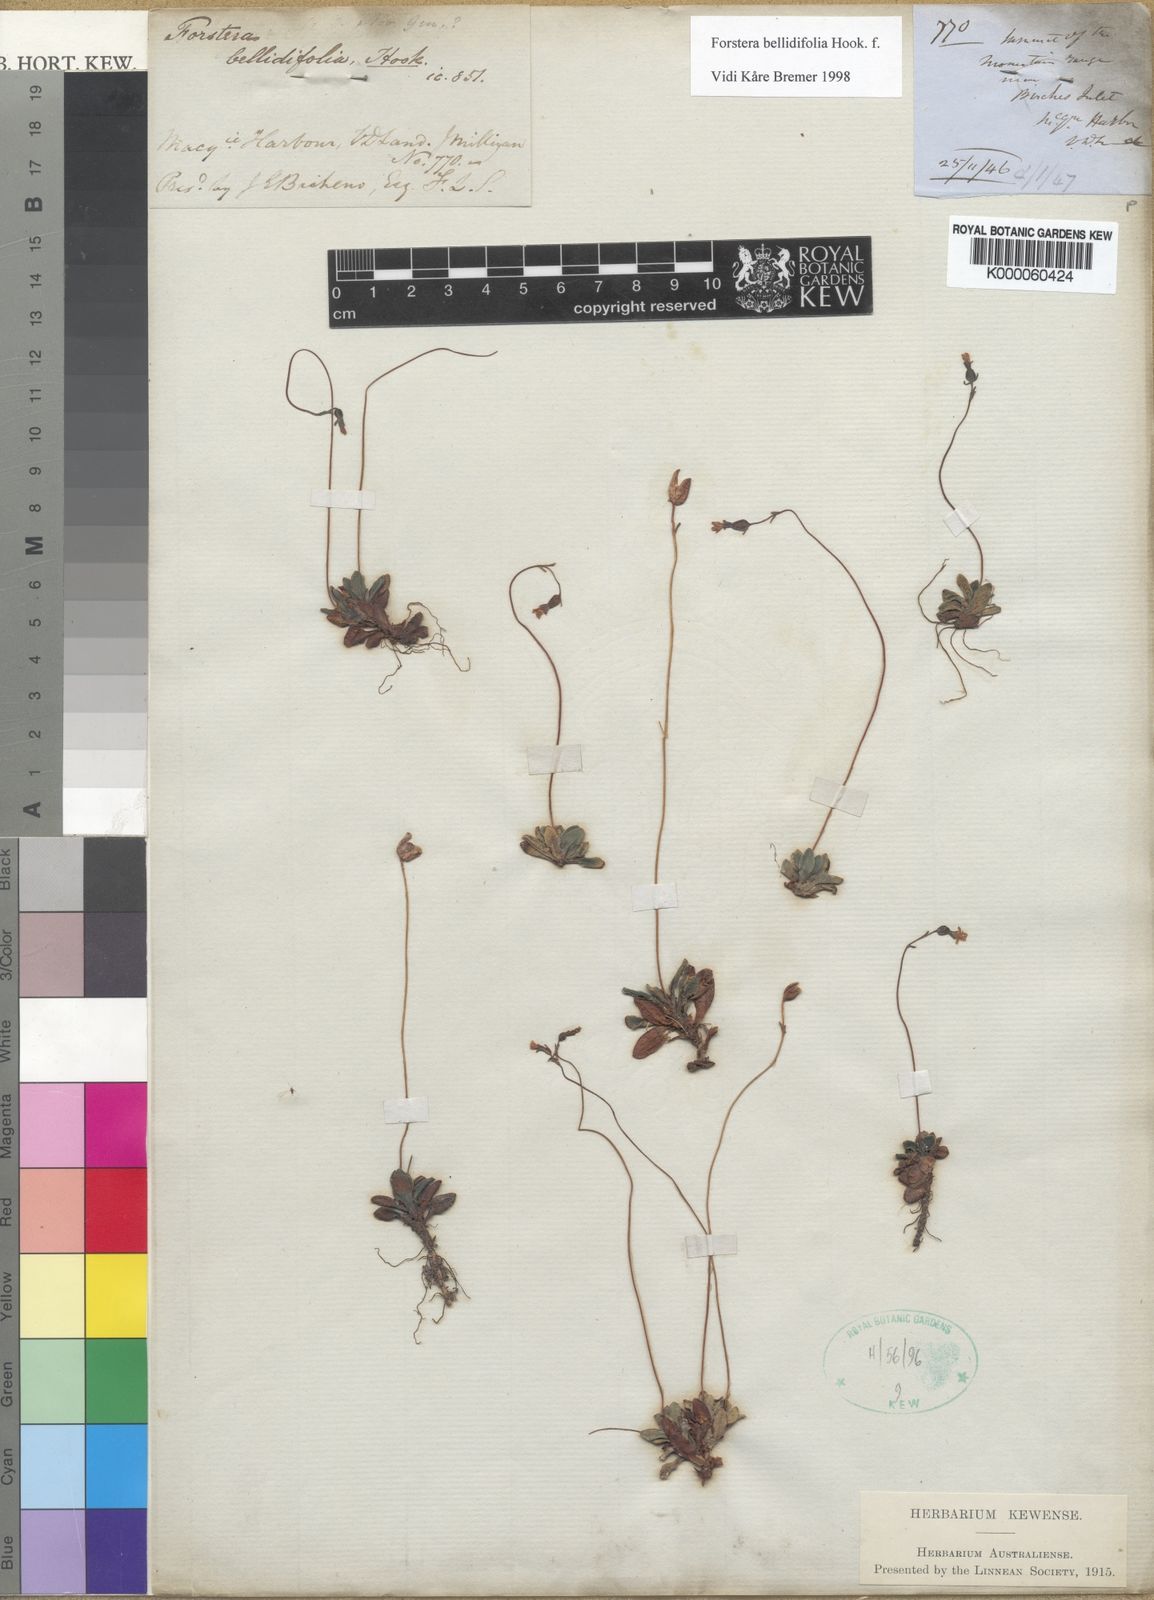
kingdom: Plantae
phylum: Tracheophyta
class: Magnoliopsida
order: Asterales
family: Stylidiaceae
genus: Forstera
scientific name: Forstera bellidifolia
